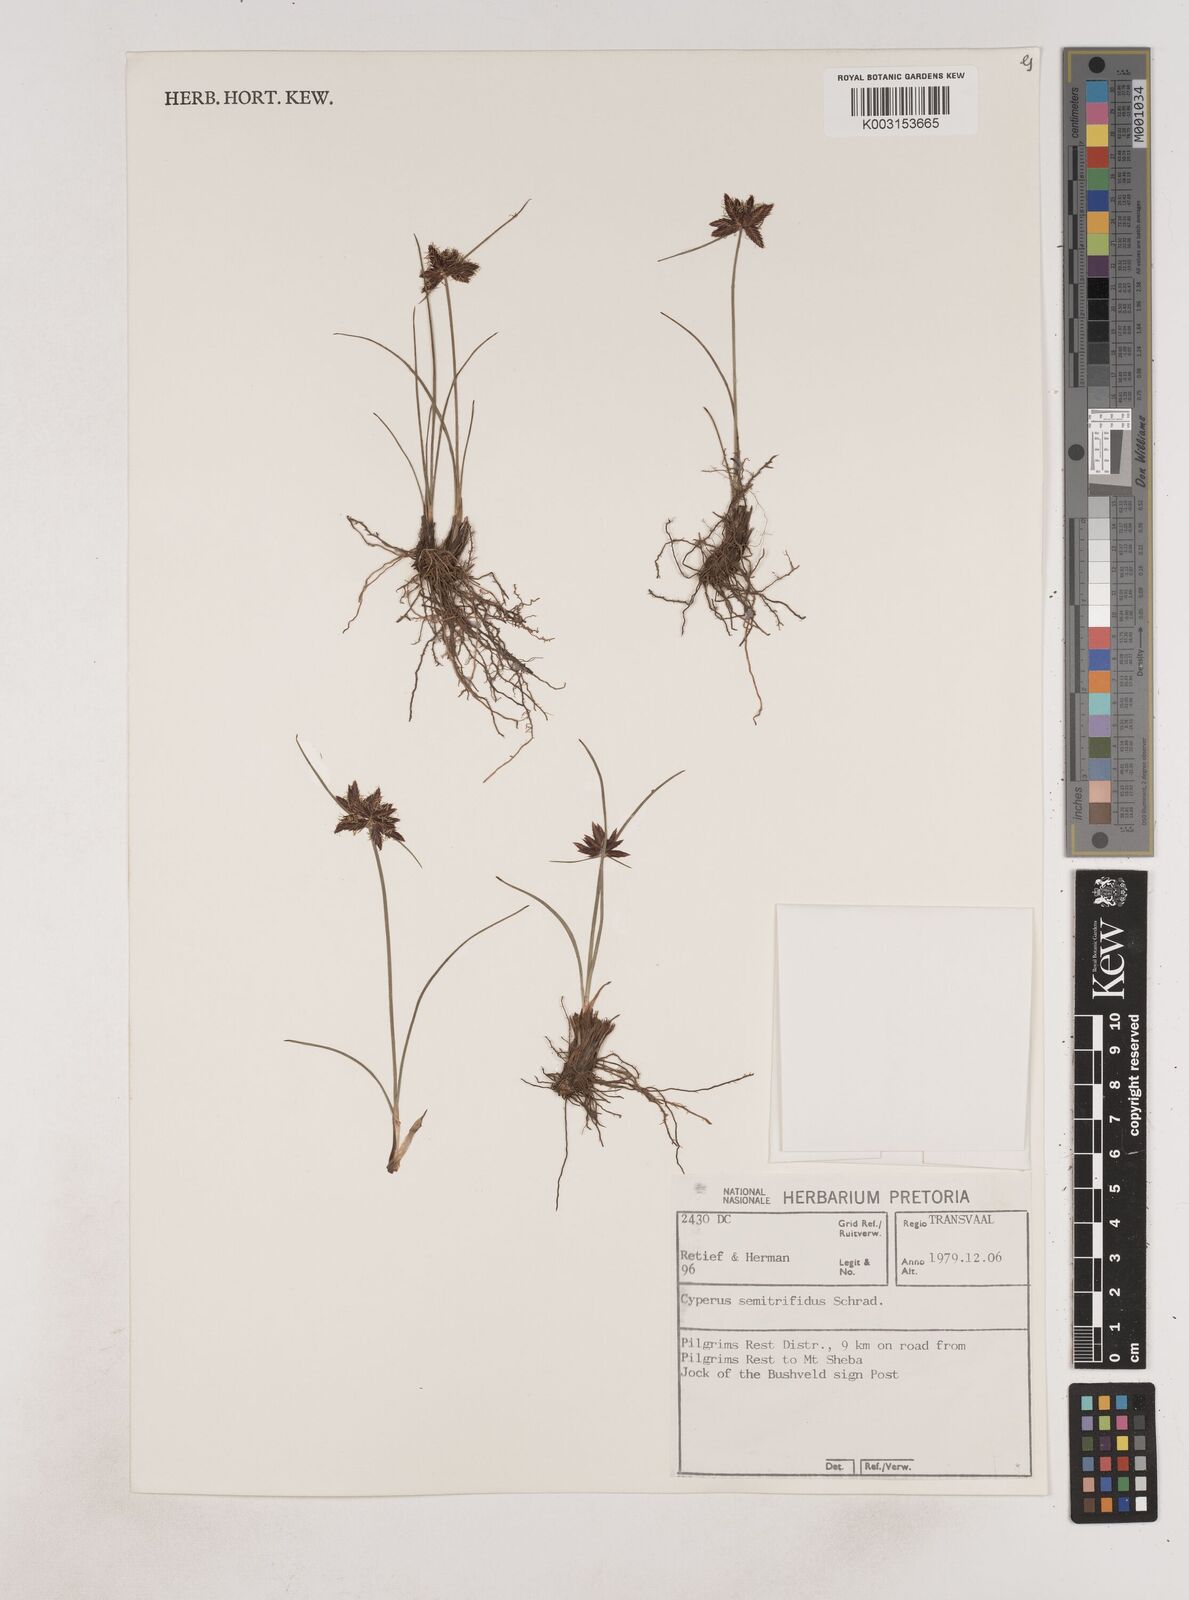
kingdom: Plantae
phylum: Tracheophyta
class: Liliopsida
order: Poales
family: Cyperaceae
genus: Cyperus
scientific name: Cyperus semitrifidus
